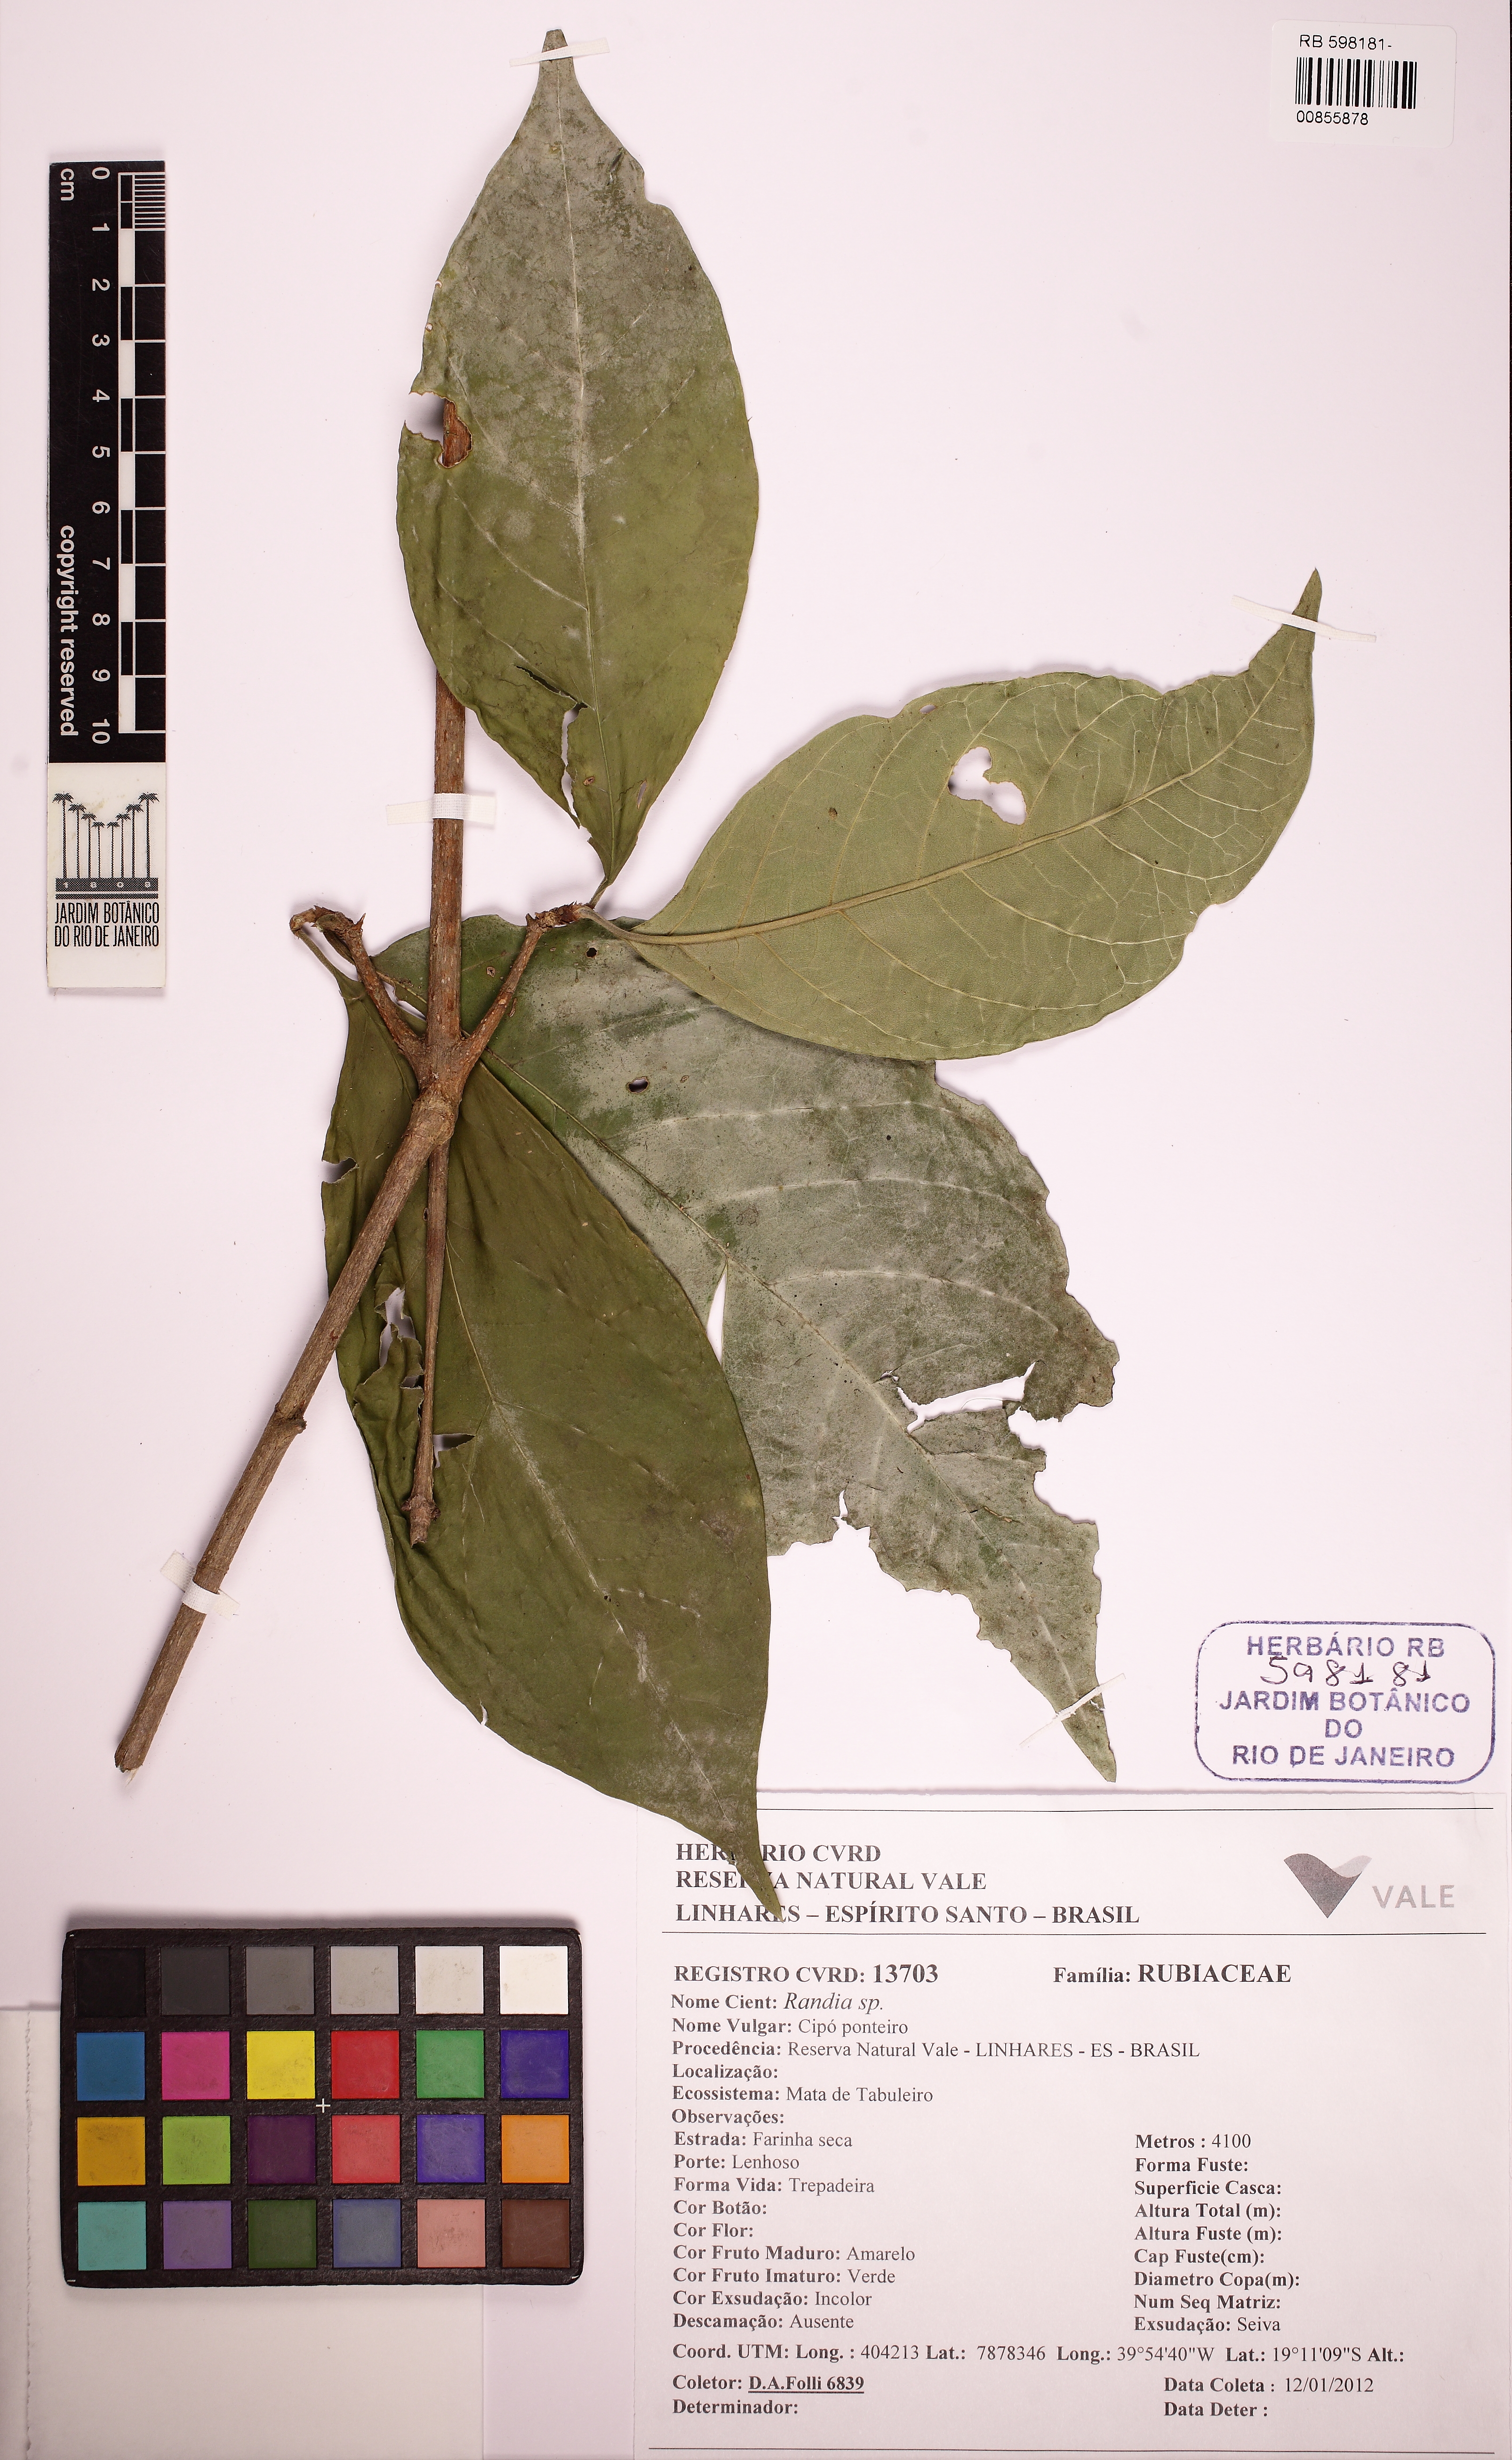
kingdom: Plantae
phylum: Tracheophyta
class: Magnoliopsida
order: Gentianales
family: Rubiaceae
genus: Randia
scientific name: Randia
